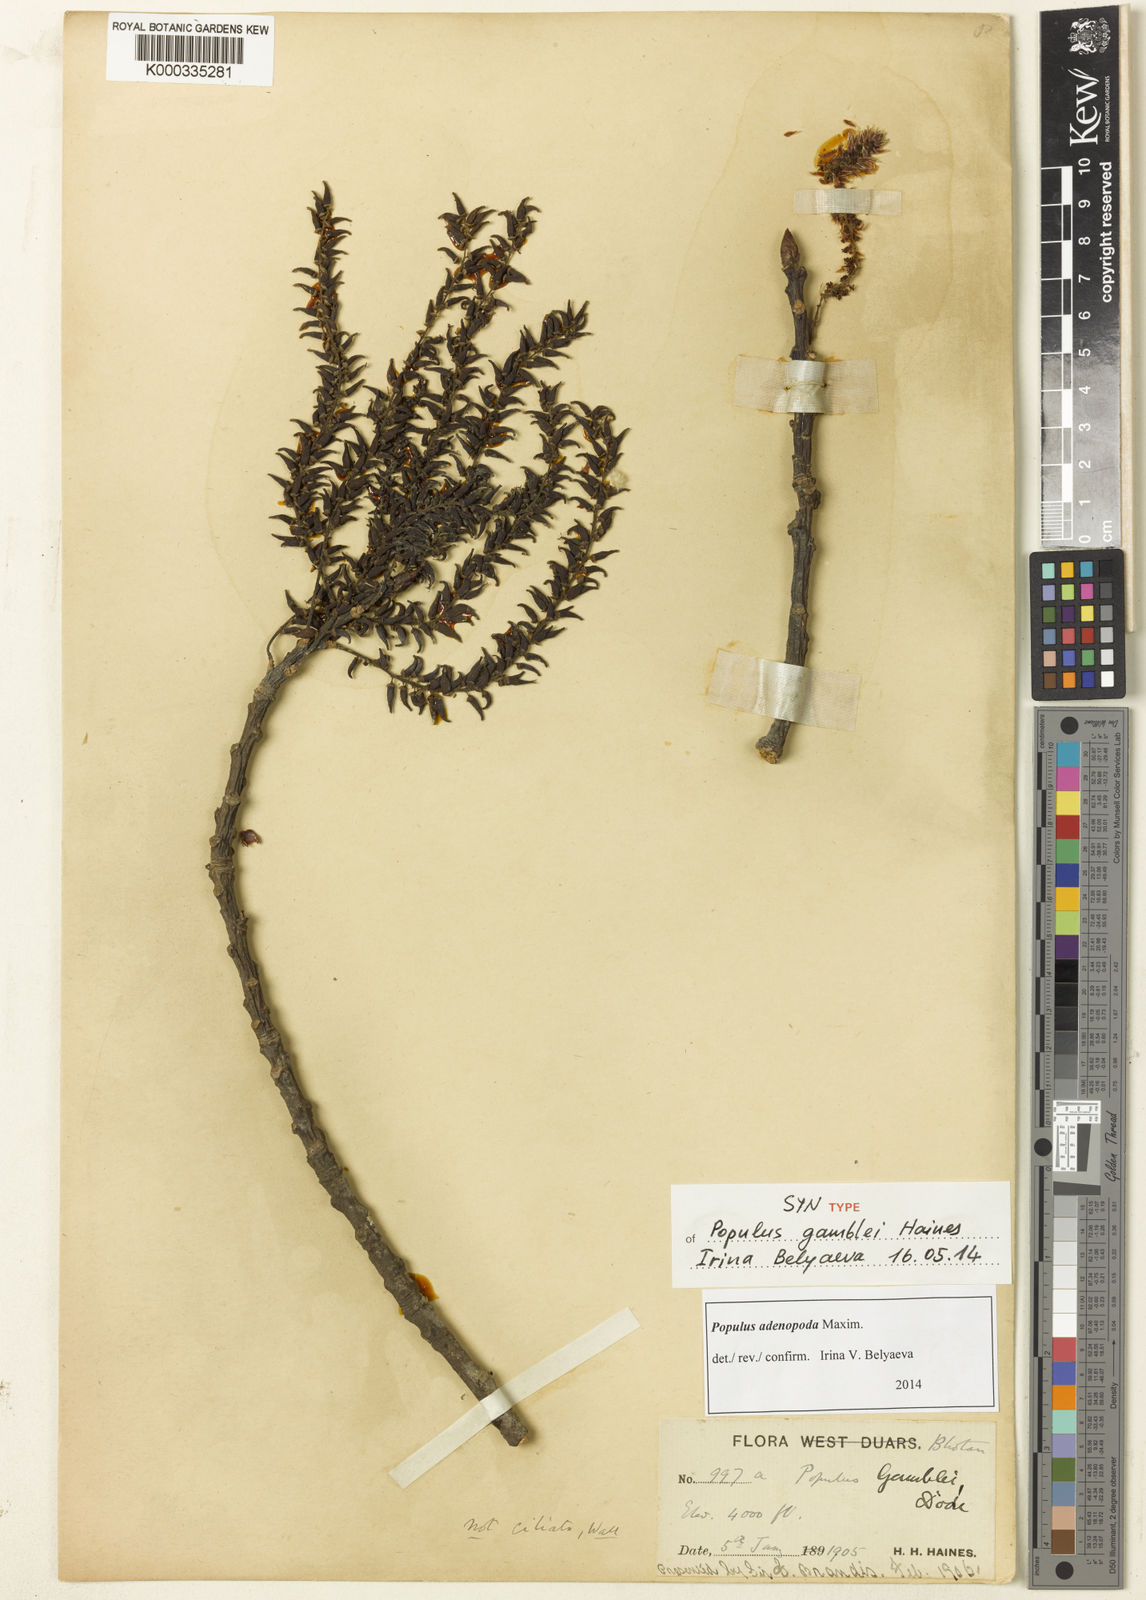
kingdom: Plantae
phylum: Tracheophyta
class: Magnoliopsida
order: Malpighiales
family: Salicaceae
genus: Populus
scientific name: Populus
